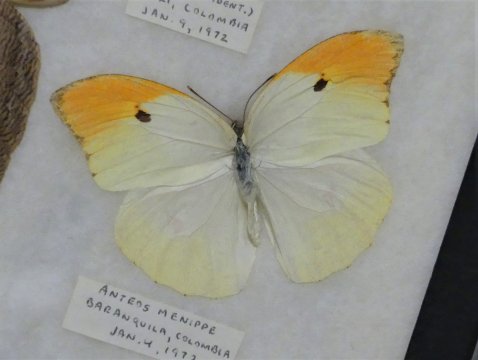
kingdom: Animalia
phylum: Arthropoda
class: Insecta
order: Lepidoptera
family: Pieridae
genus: Anteos
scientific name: Anteos menippe
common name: Orangetip Angled-Sulphur
